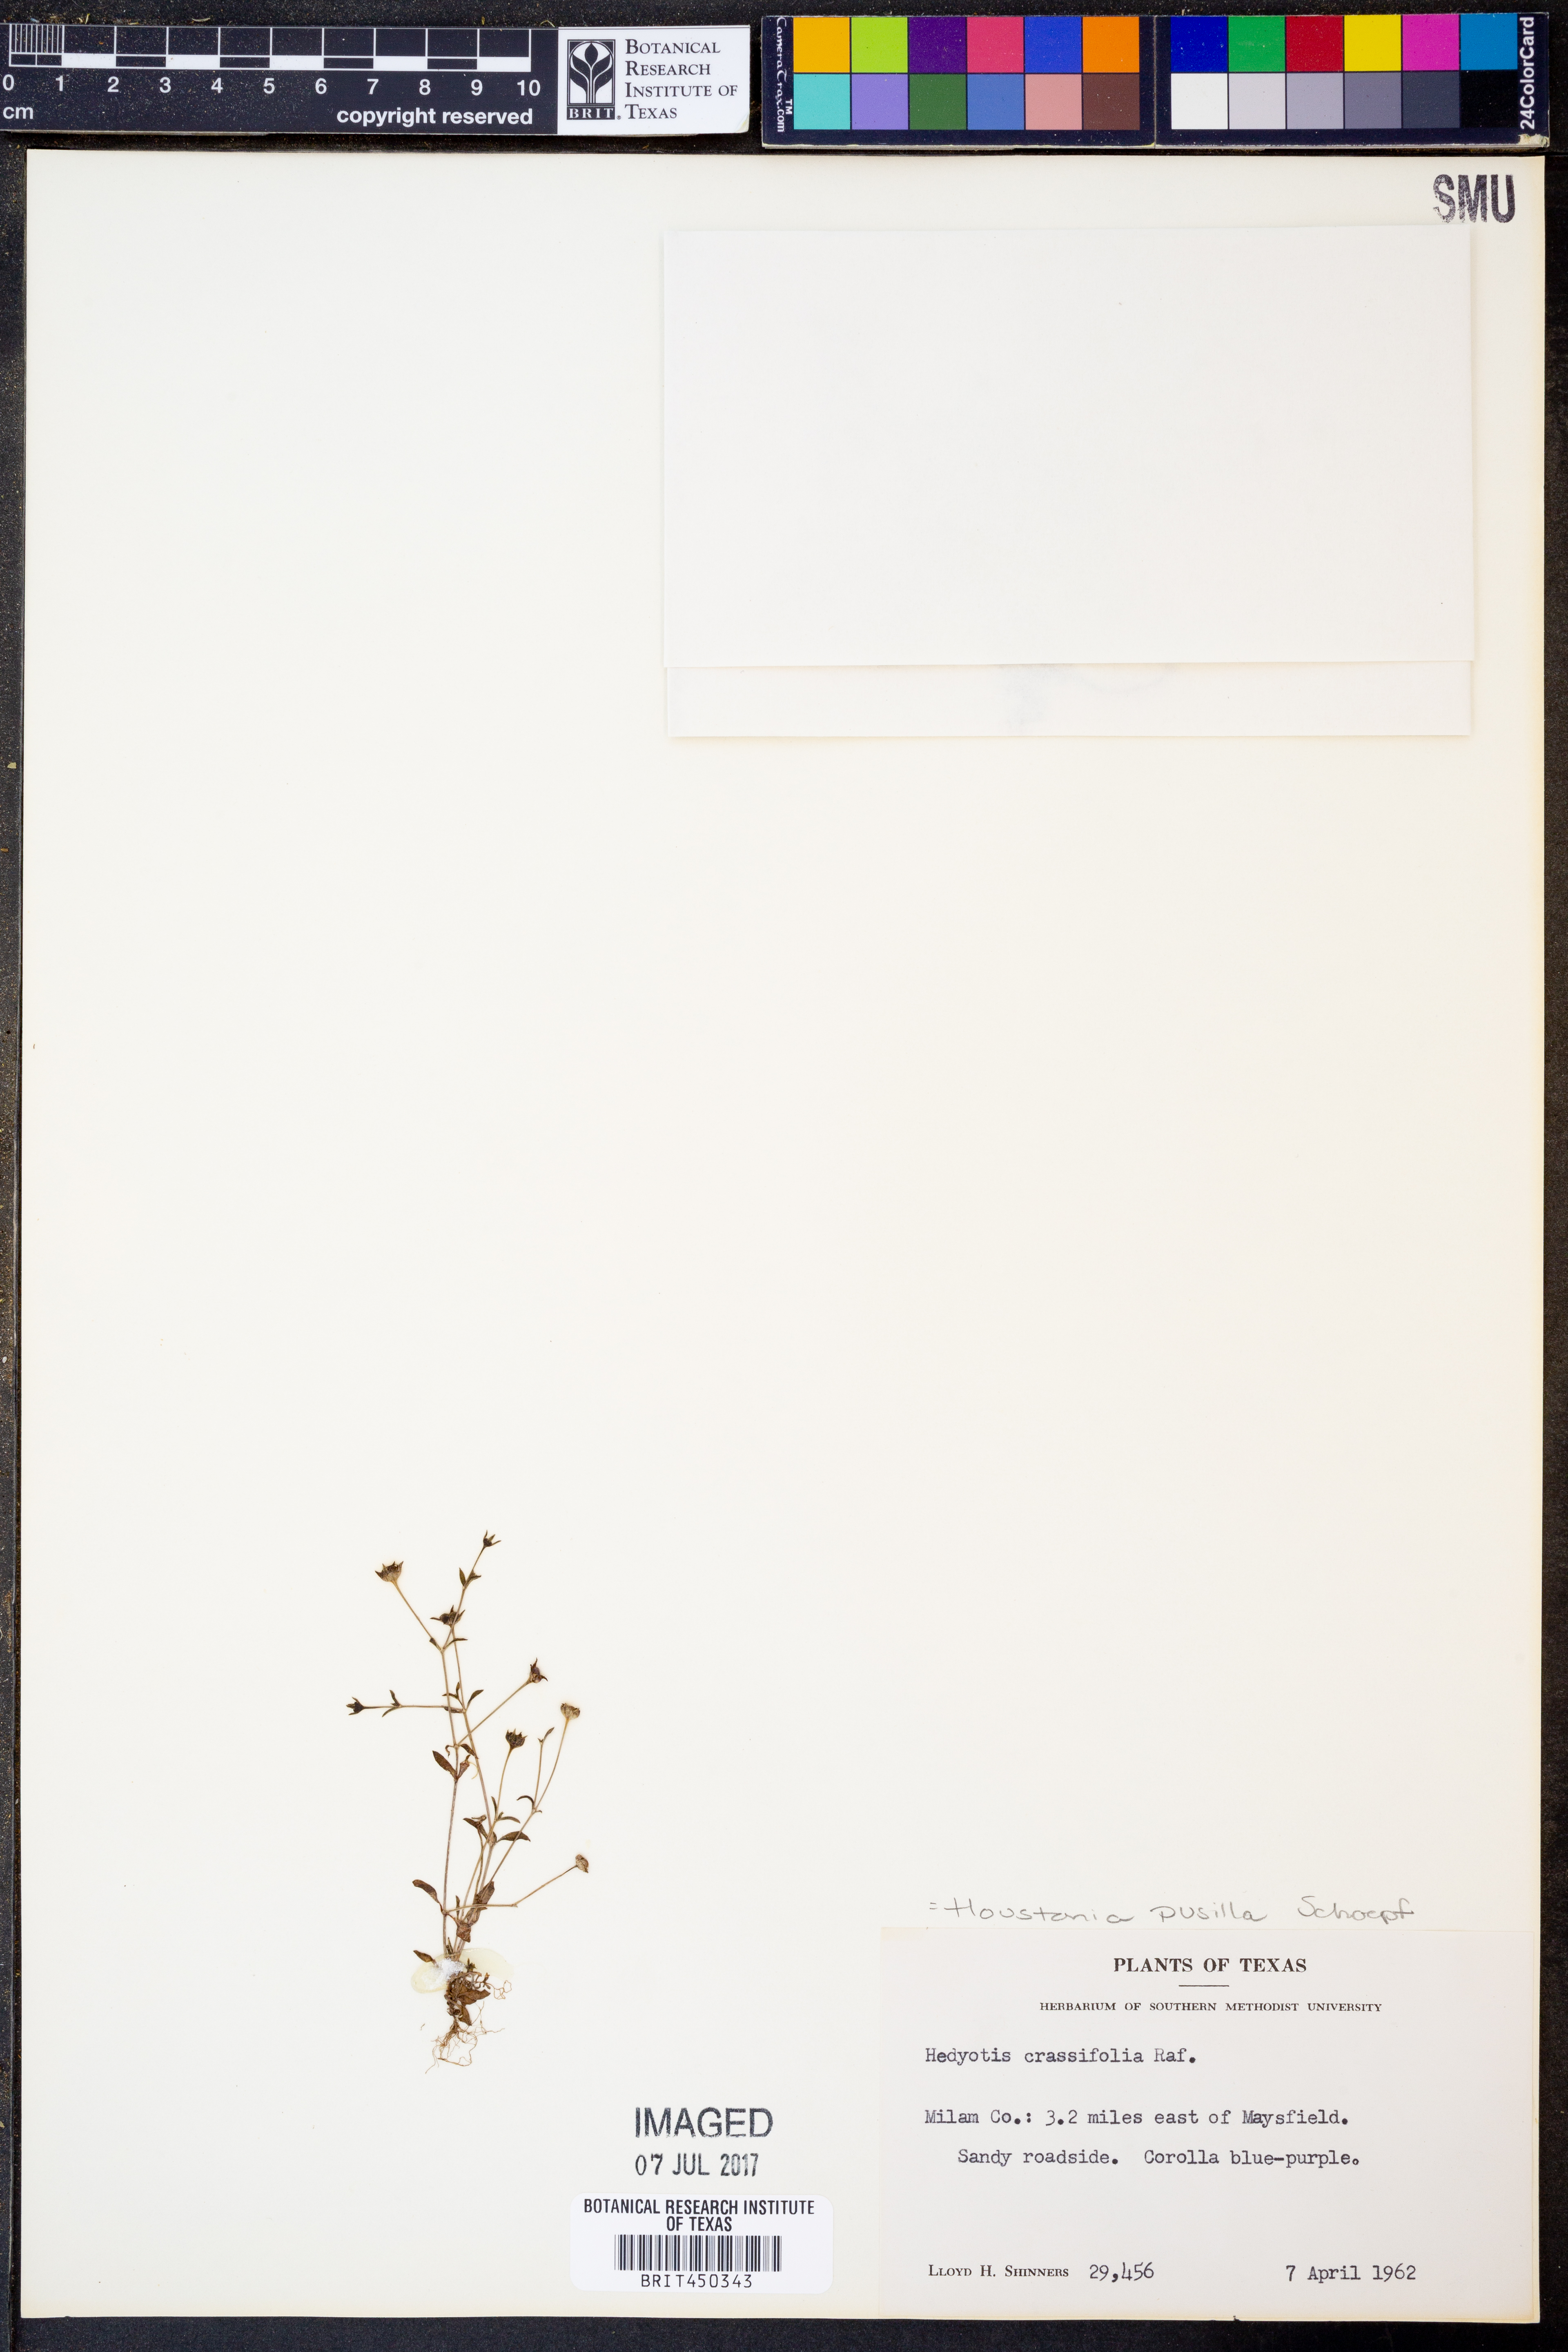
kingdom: Plantae
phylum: Tracheophyta
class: Magnoliopsida
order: Gentianales
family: Rubiaceae
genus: Houstonia
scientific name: Houstonia pusilla
